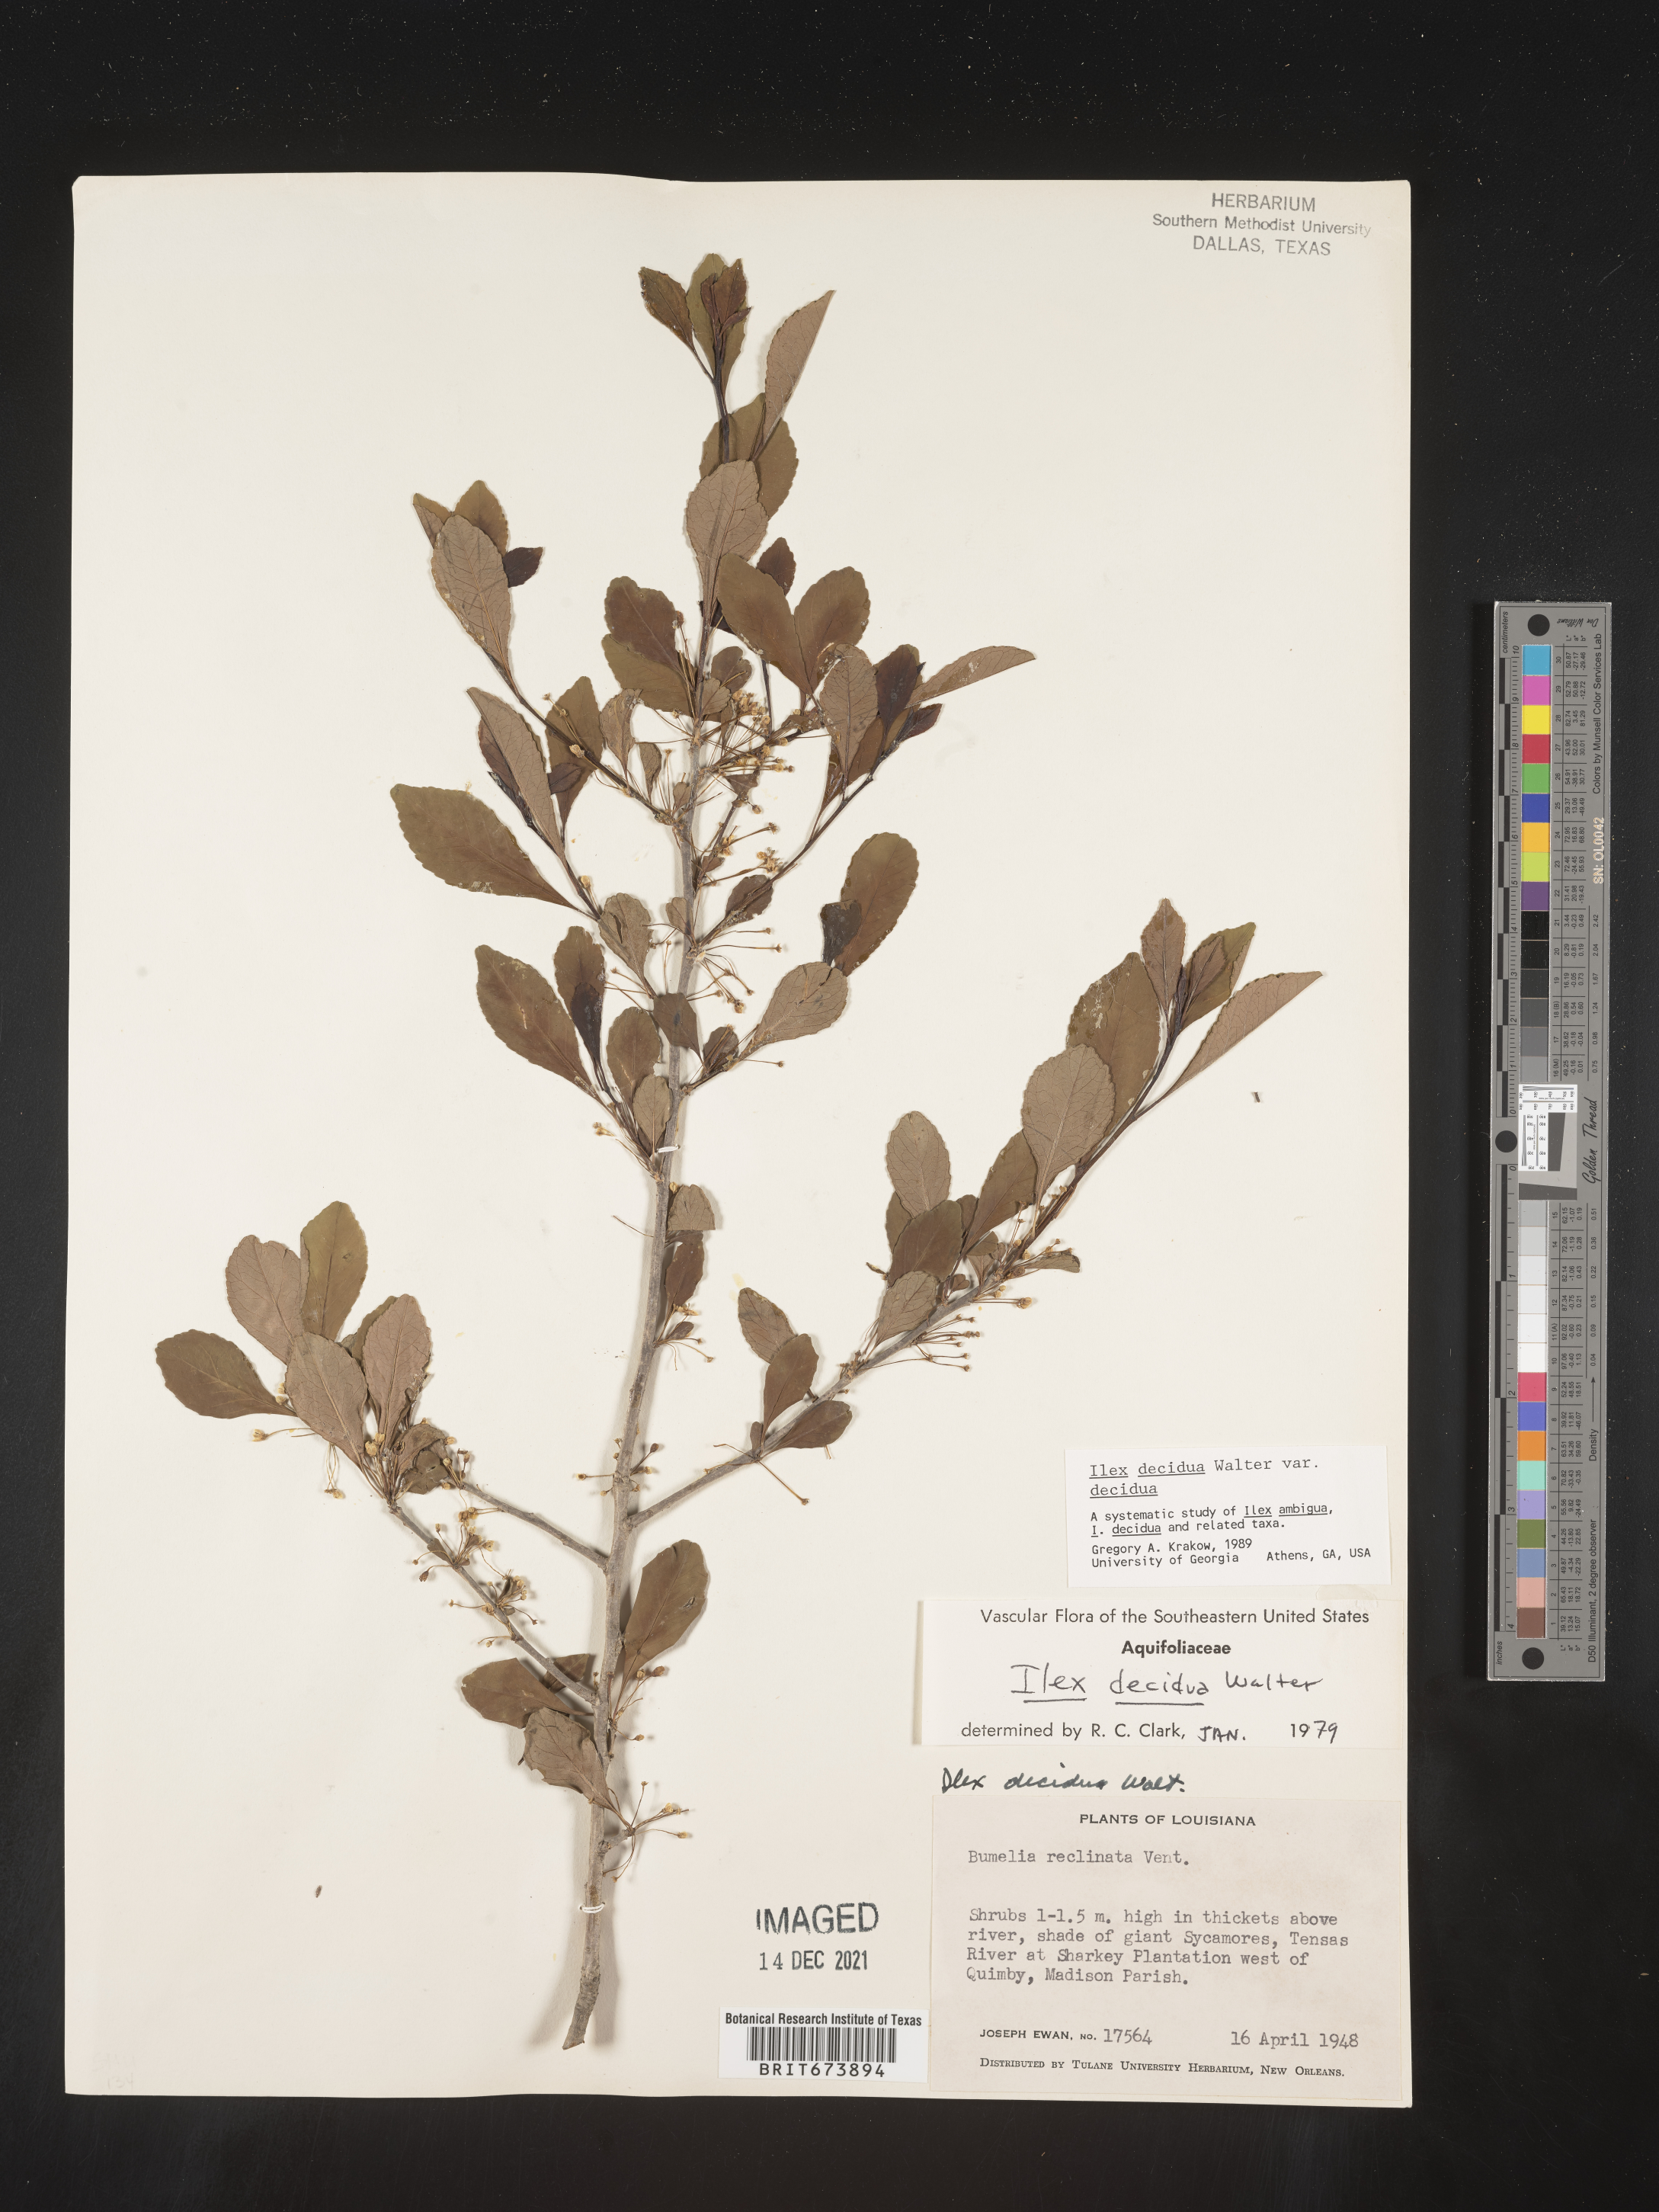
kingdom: Plantae
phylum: Tracheophyta
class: Magnoliopsida
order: Aquifoliales
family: Aquifoliaceae
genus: Ilex
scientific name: Ilex decidua
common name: Possum-haw
